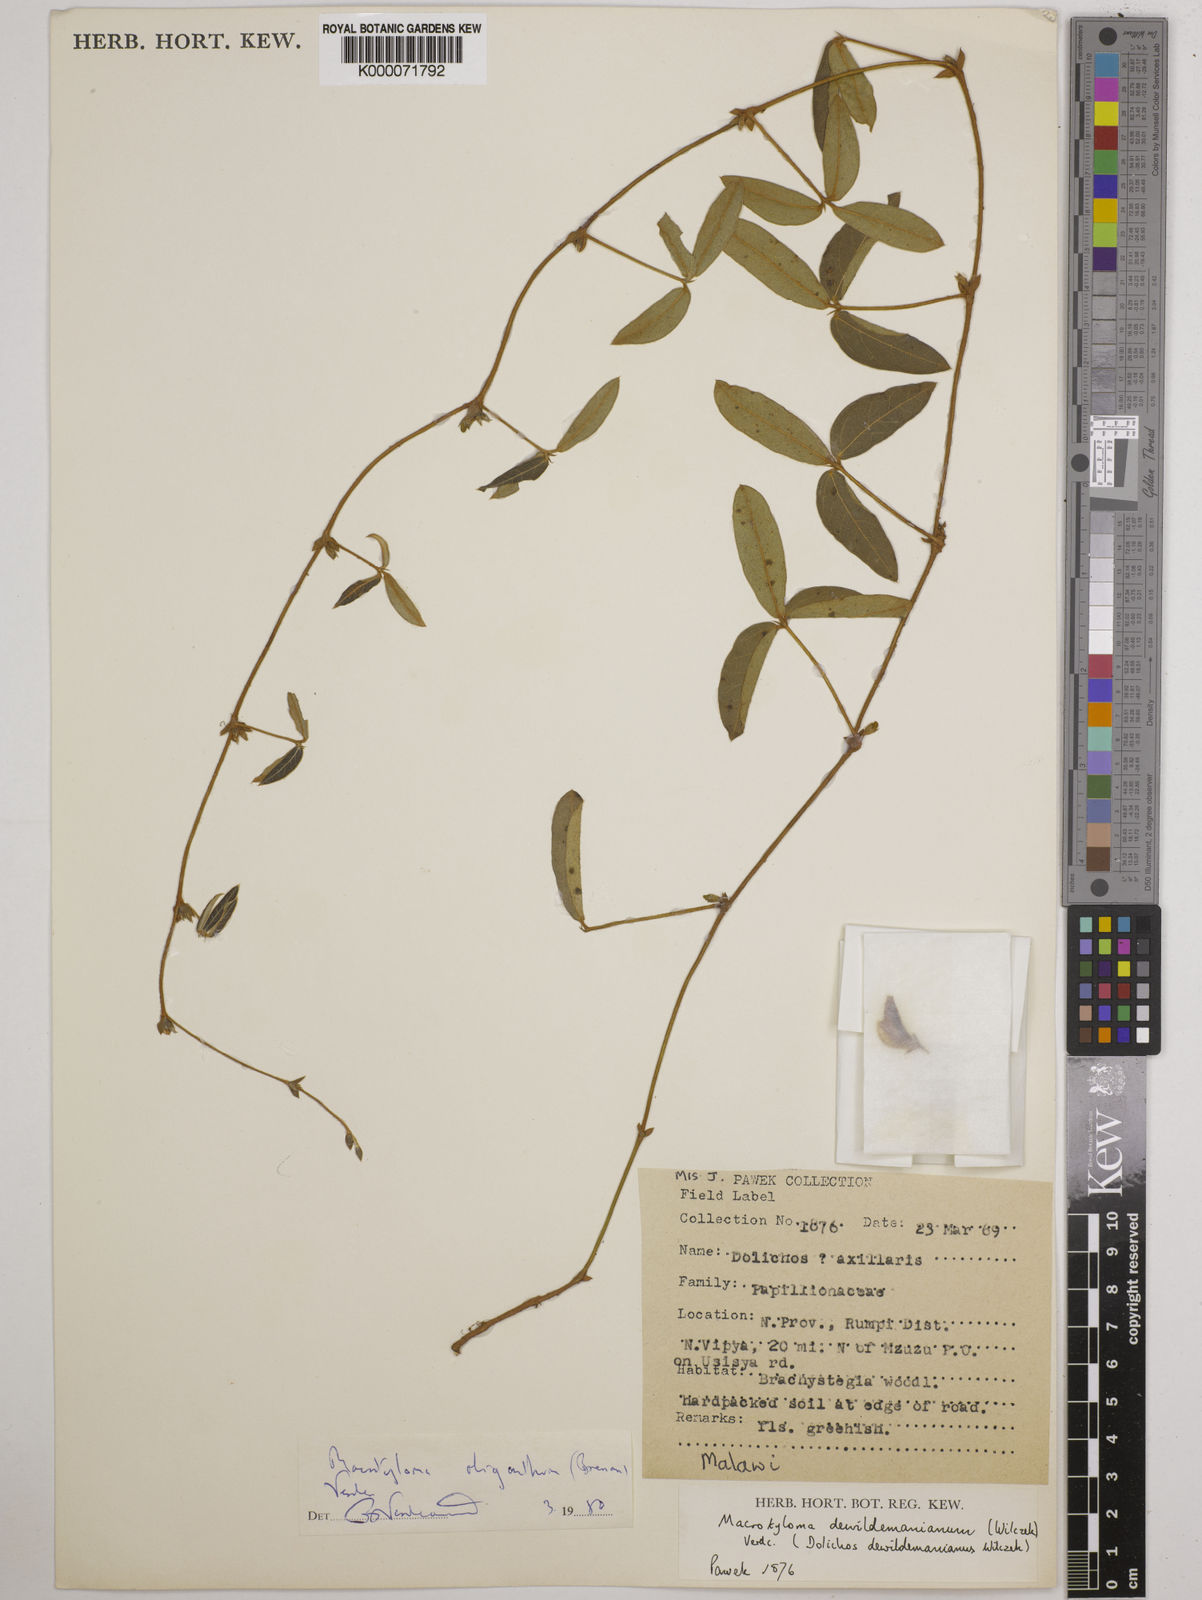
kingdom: Plantae
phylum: Tracheophyta
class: Magnoliopsida
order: Fabales
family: Fabaceae
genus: Macrotyloma
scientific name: Macrotyloma oliganthum
